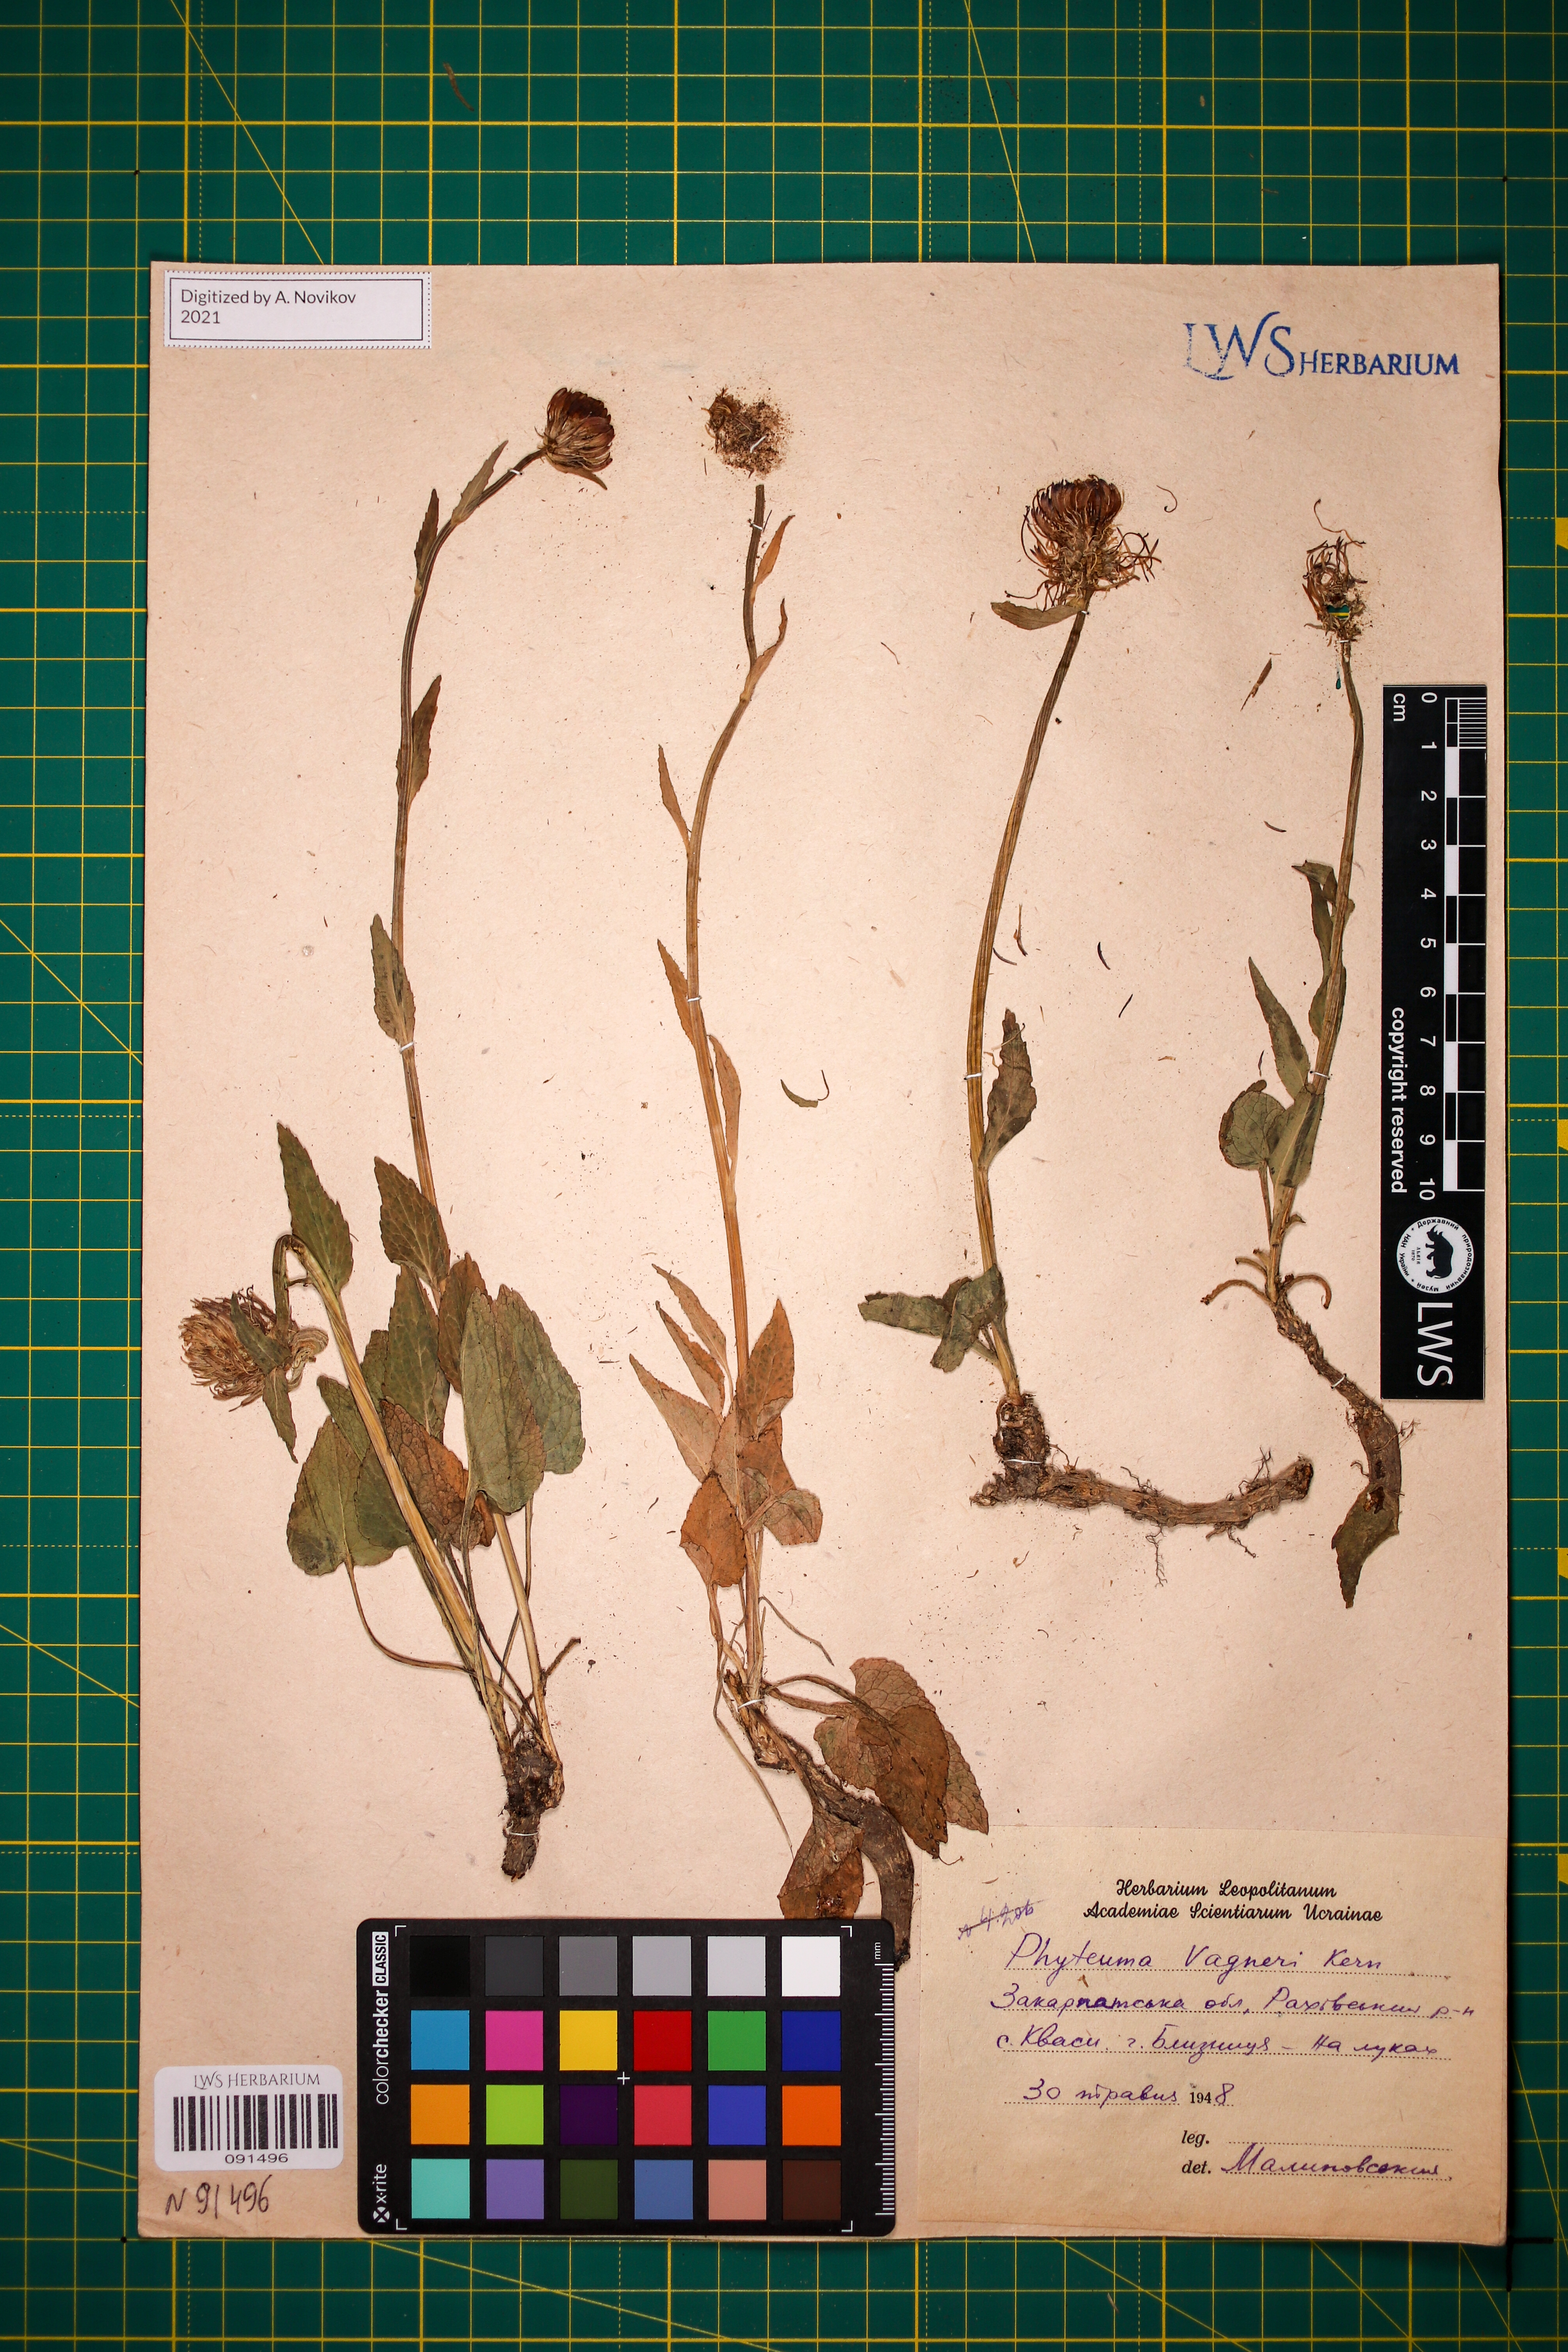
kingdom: Plantae
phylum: Tracheophyta
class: Magnoliopsida
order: Asterales
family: Campanulaceae
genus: Phyteuma
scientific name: Phyteuma vagneri
